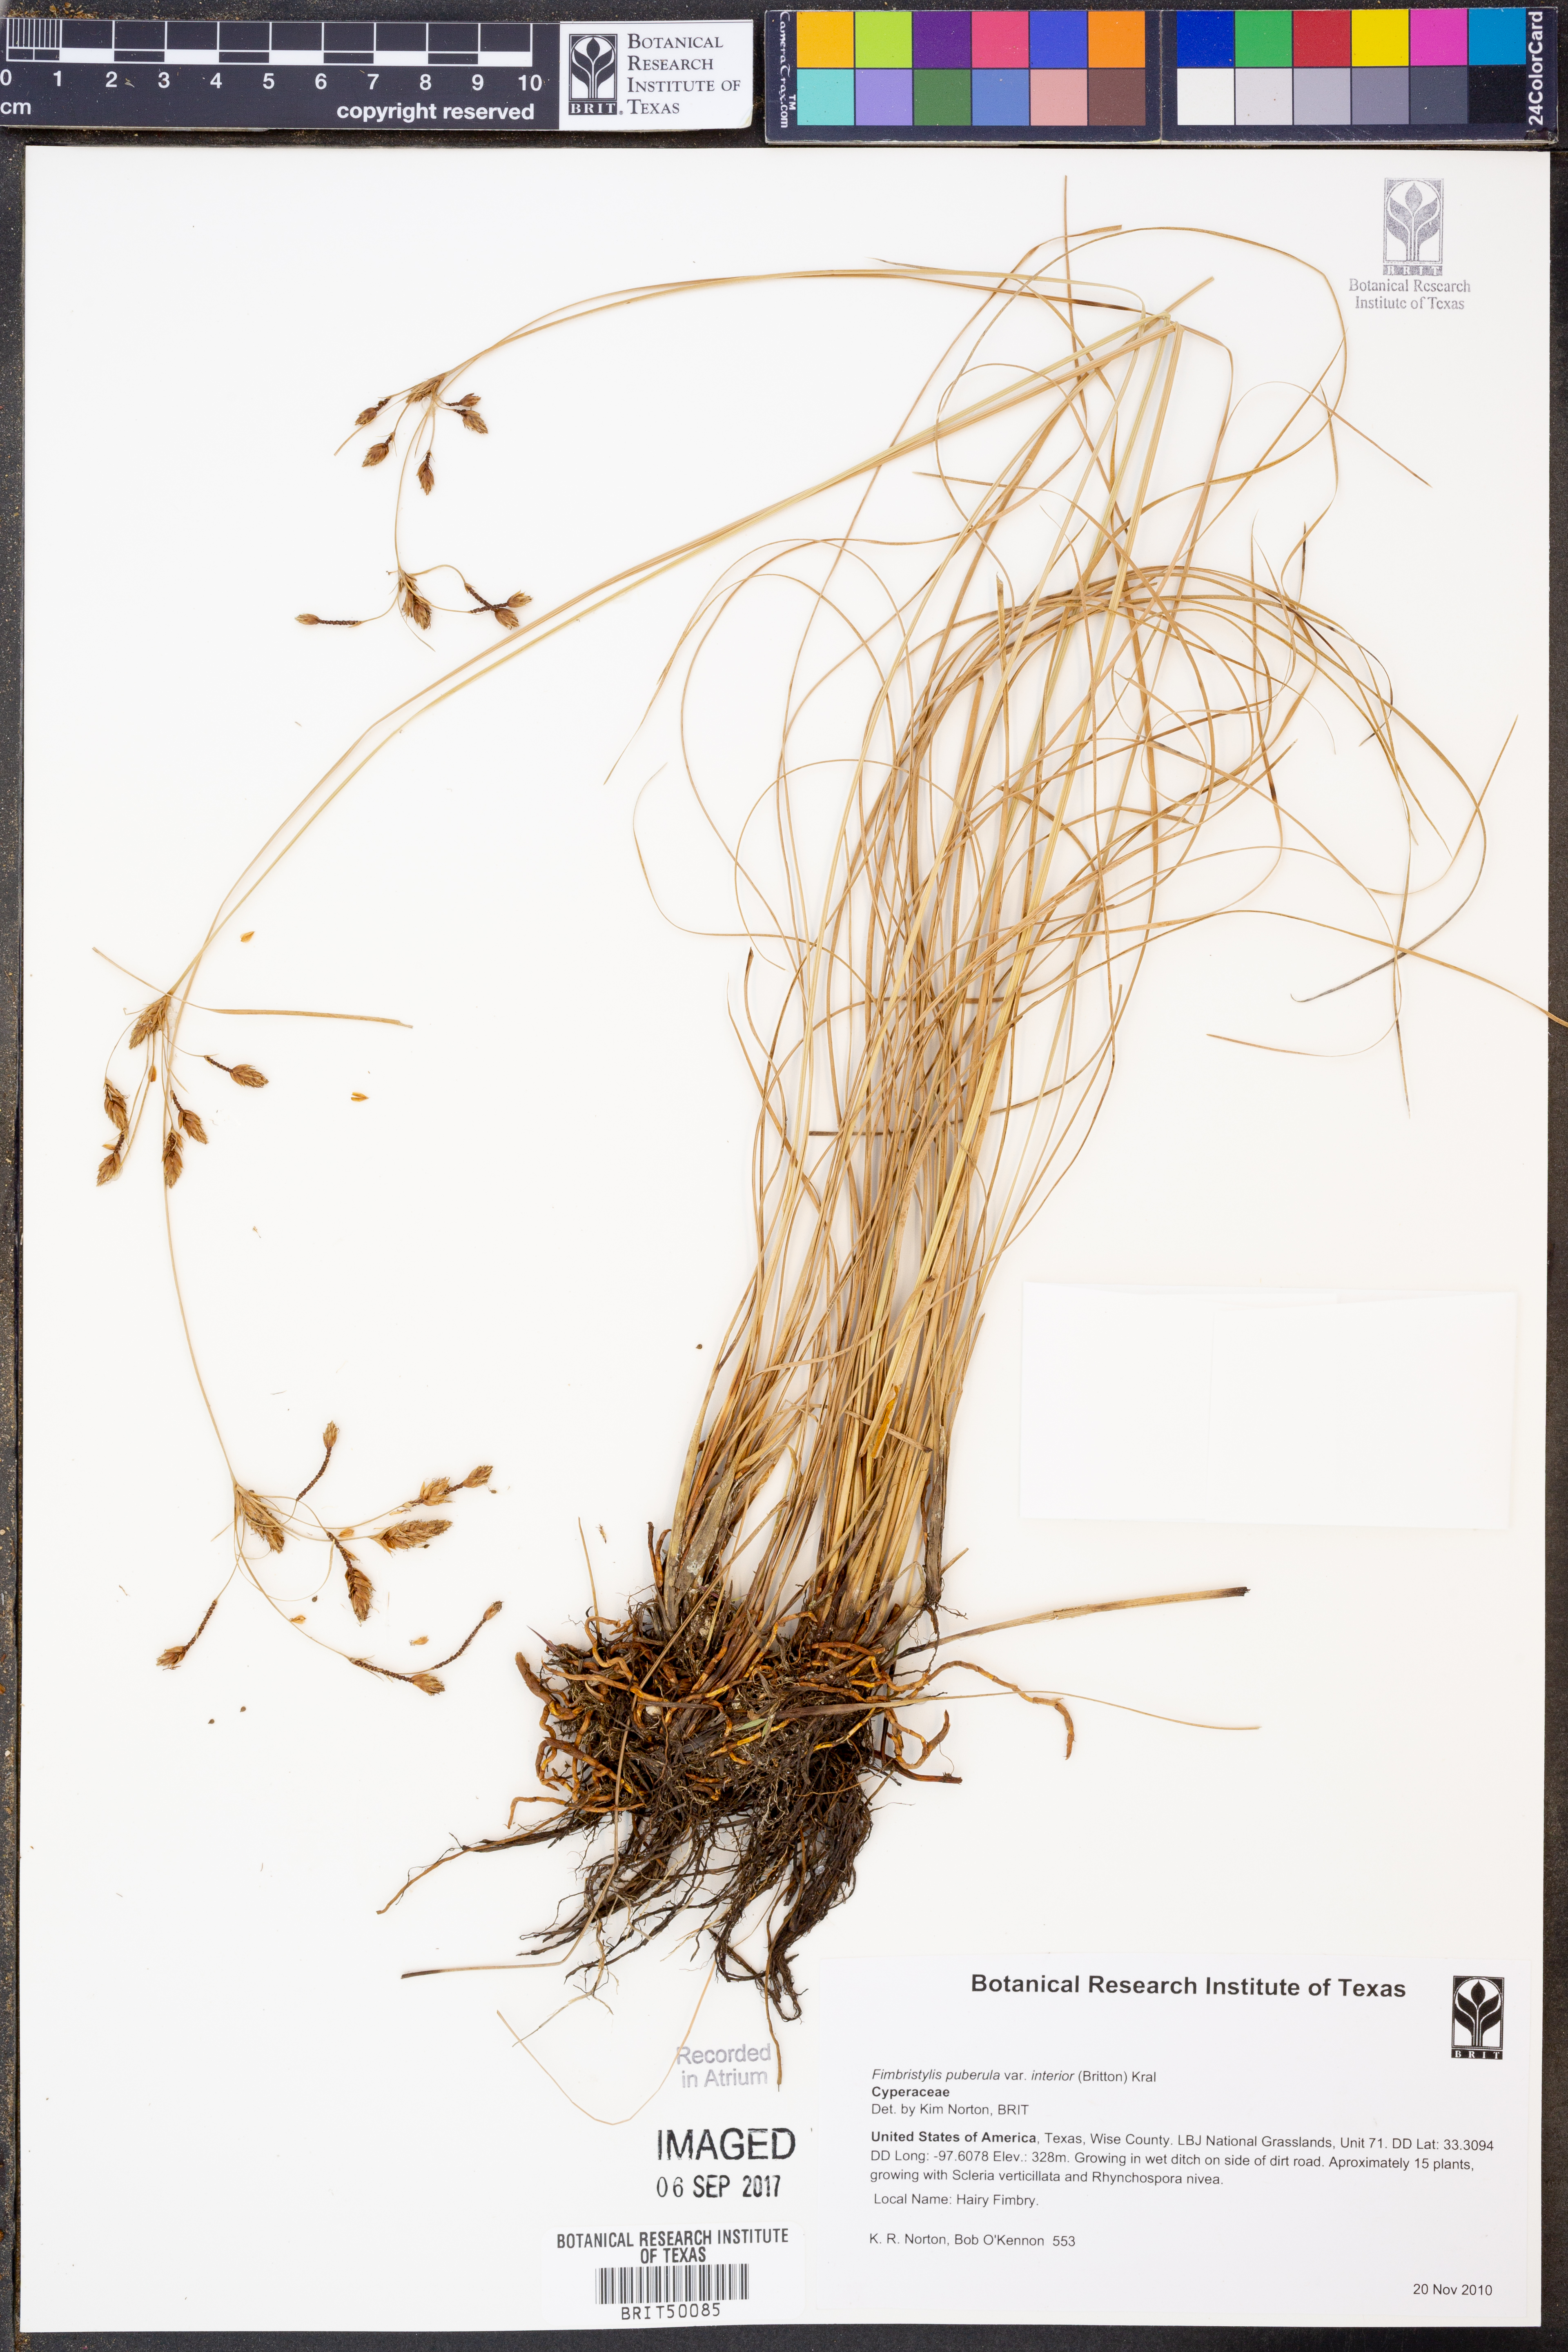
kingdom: Plantae
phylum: Tracheophyta
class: Liliopsida
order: Poales
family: Cyperaceae
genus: Fimbristylis
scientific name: Fimbristylis puberula
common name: Hairy fimbristylis
